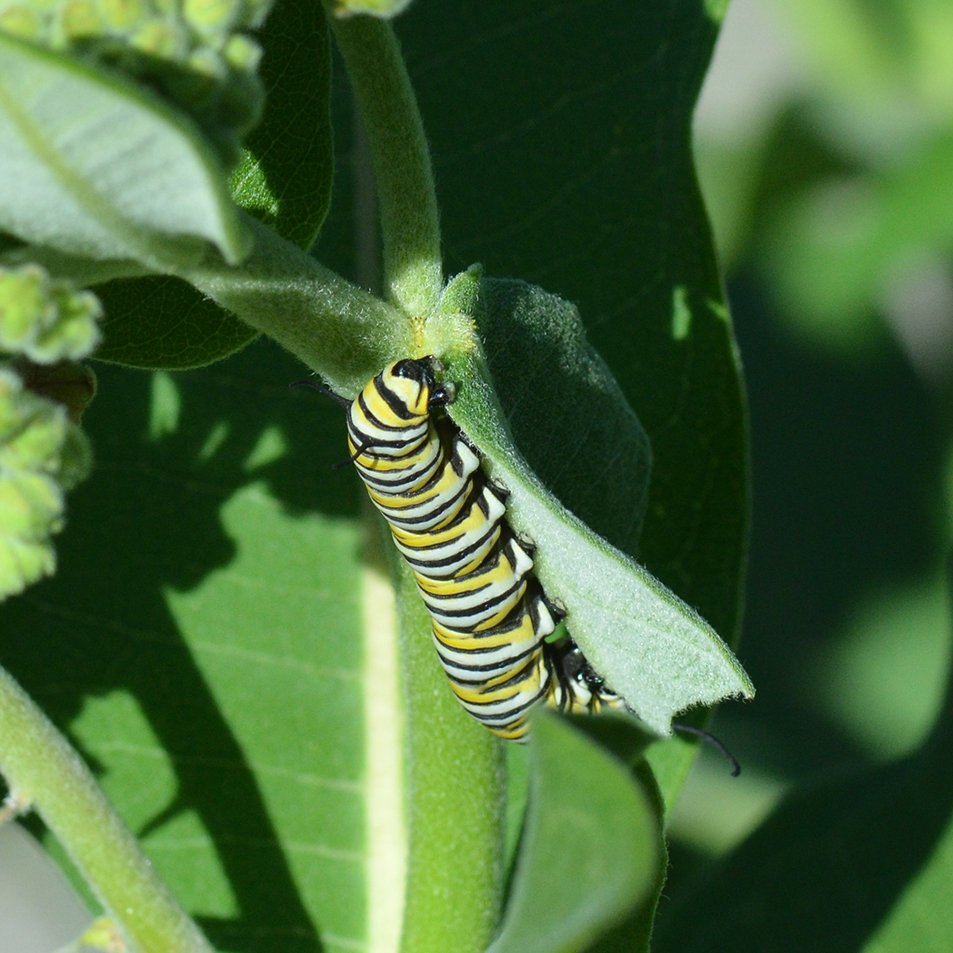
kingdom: Animalia
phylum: Arthropoda
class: Insecta
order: Lepidoptera
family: Nymphalidae
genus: Danaus
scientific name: Danaus plexippus
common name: Monarch
